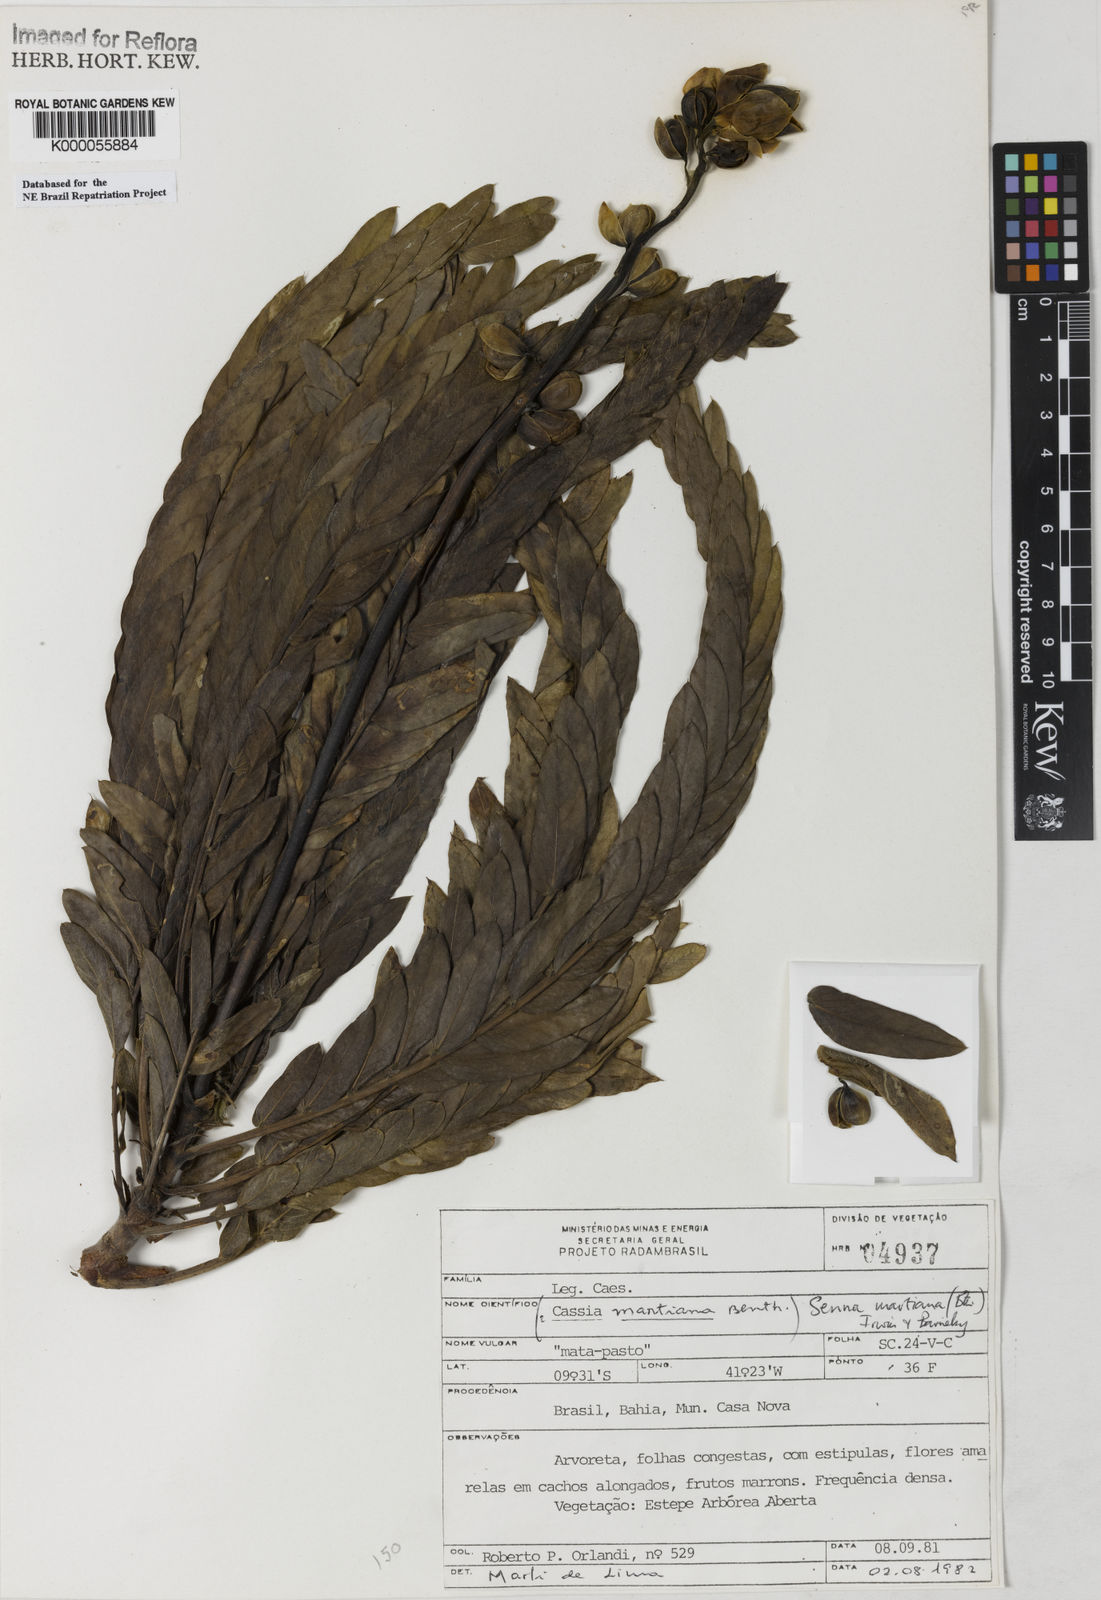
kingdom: Plantae
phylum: Tracheophyta
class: Magnoliopsida
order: Fabales
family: Fabaceae
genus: Senna
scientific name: Senna martiana
